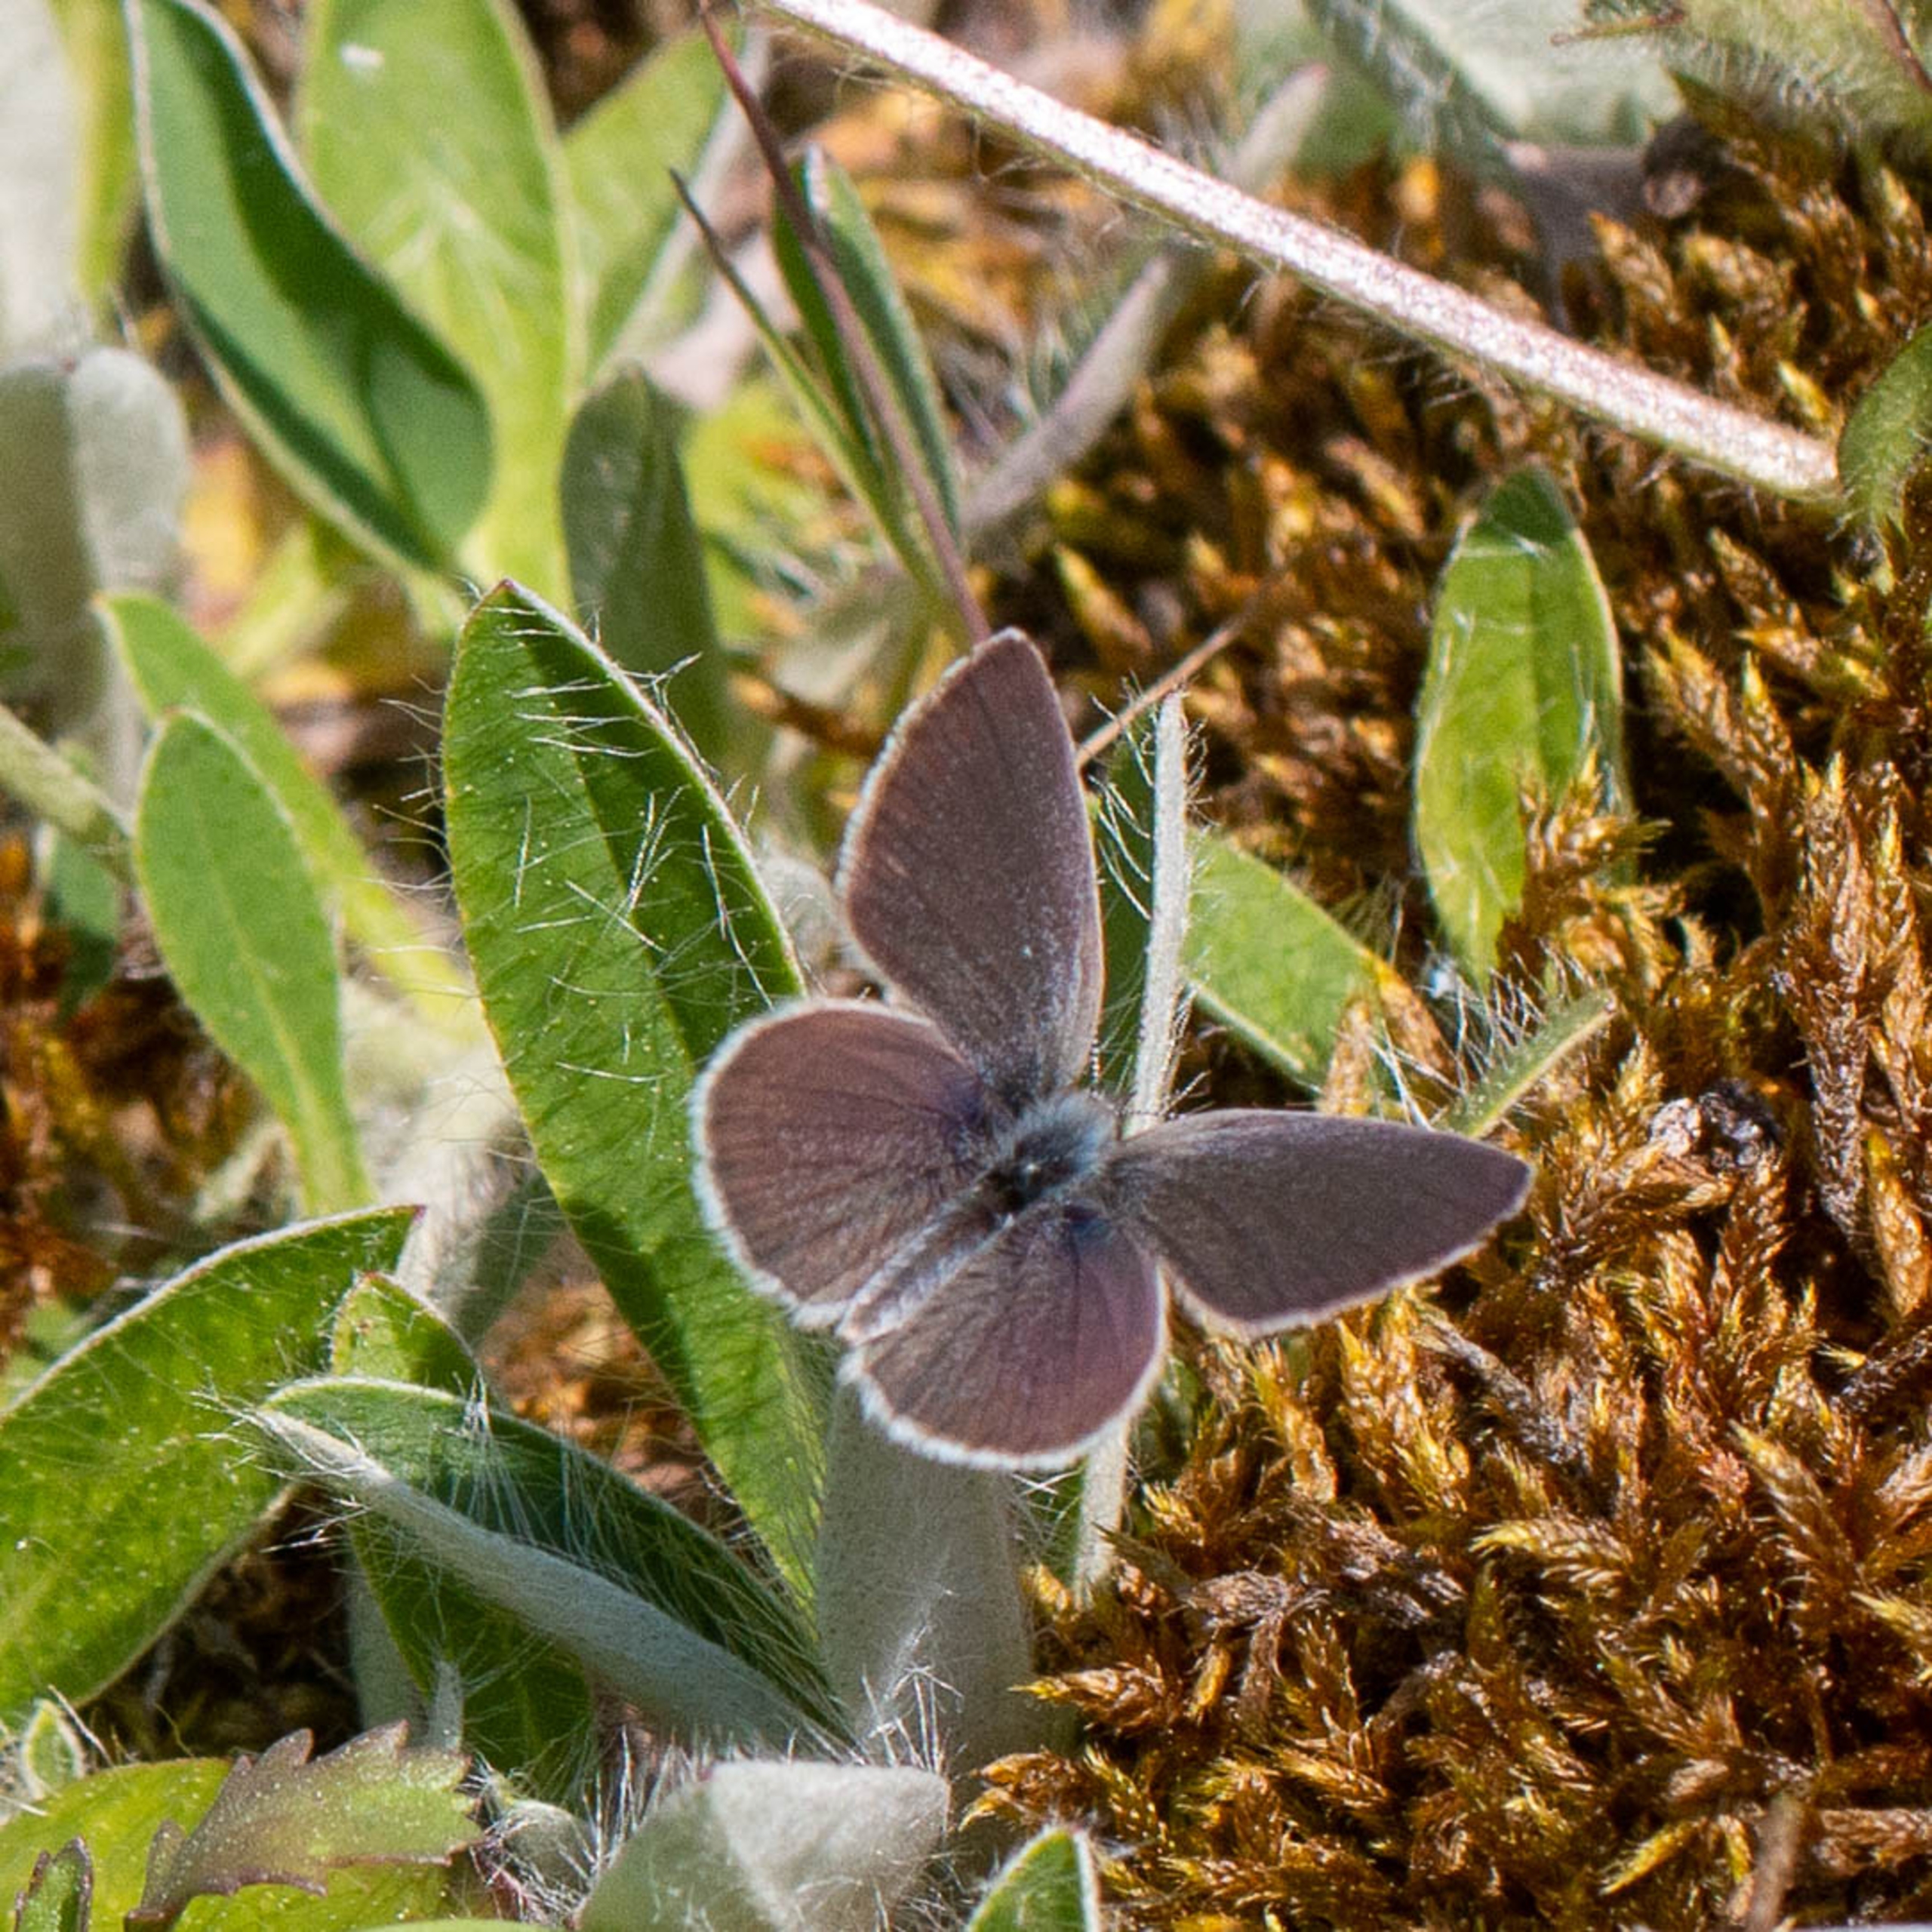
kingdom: Animalia
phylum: Arthropoda
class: Insecta
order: Lepidoptera
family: Lycaenidae
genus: Cupido
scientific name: Cupido minimus
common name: Dværgblåfugl
